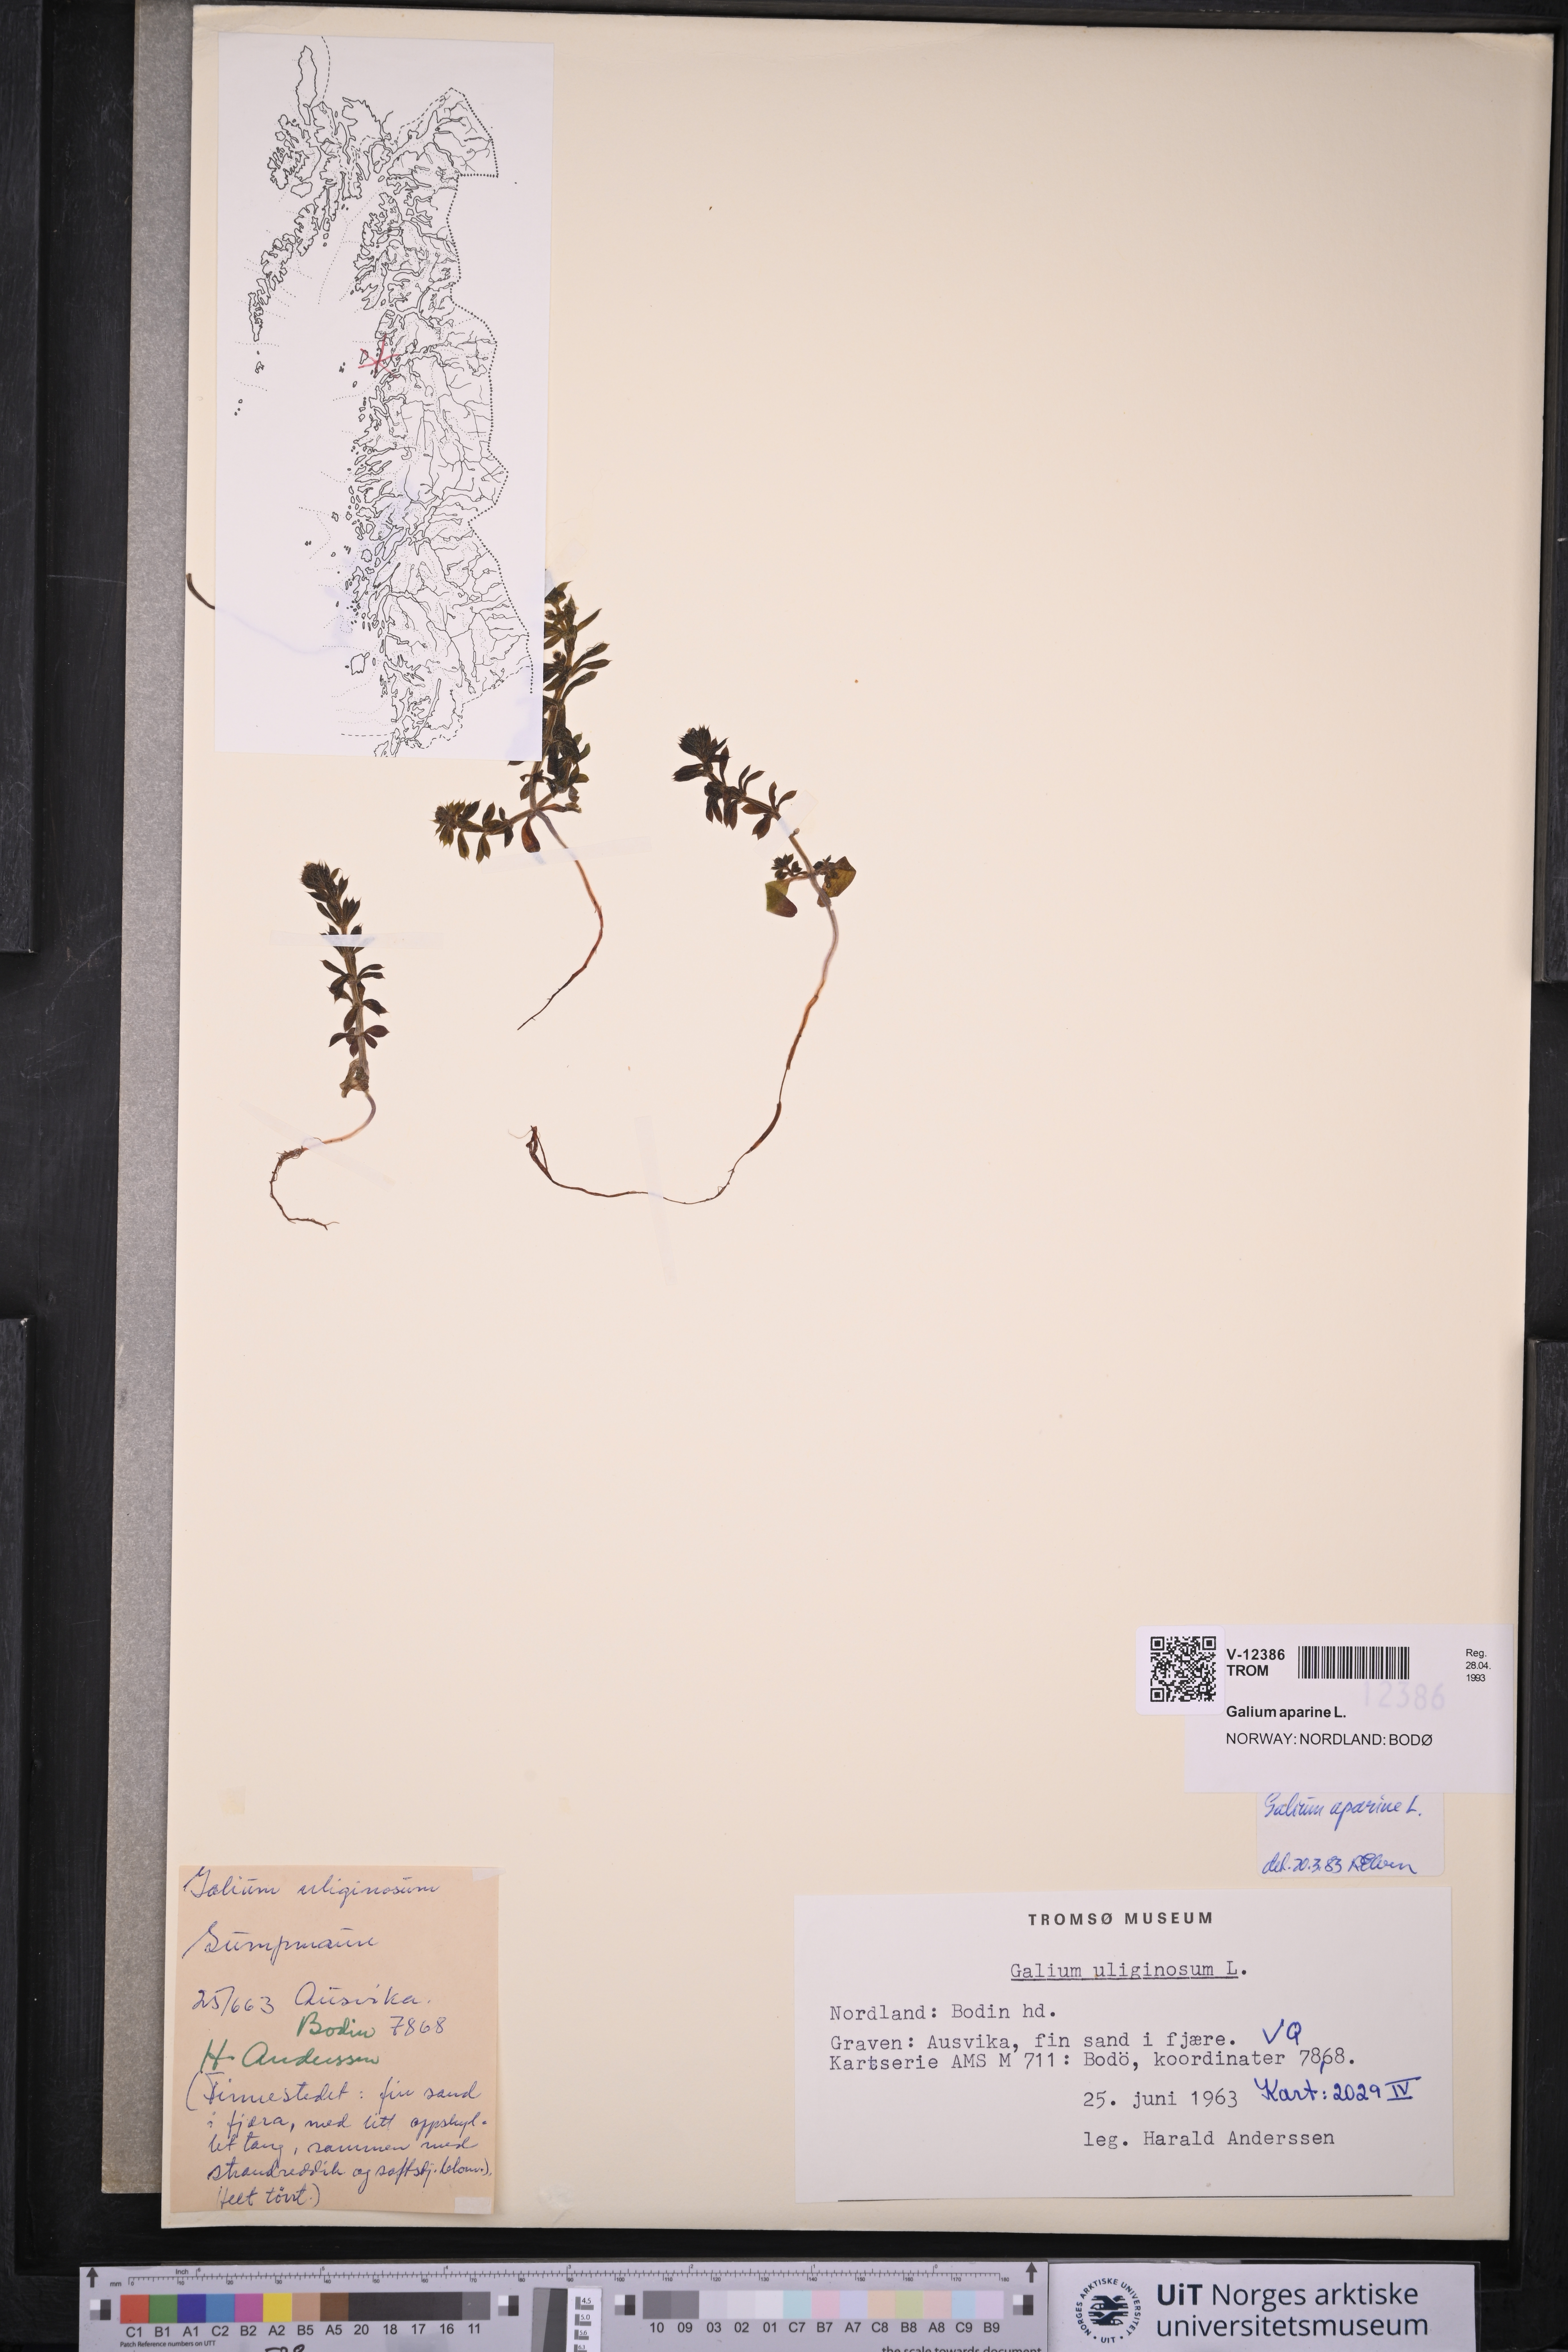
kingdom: Plantae
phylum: Tracheophyta
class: Magnoliopsida
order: Gentianales
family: Rubiaceae
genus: Galium
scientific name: Galium aparine
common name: Cleavers
